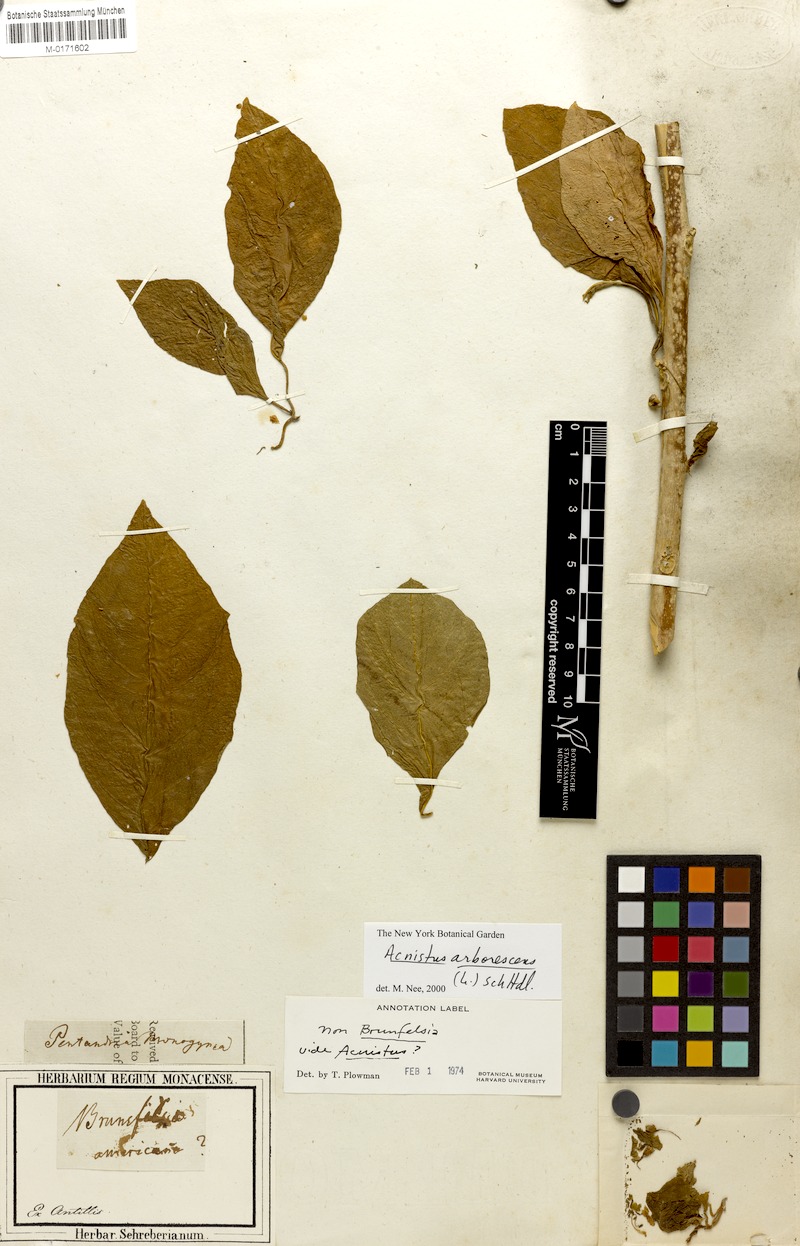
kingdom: Plantae
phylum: Tracheophyta
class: Magnoliopsida
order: Solanales
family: Solanaceae
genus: Iochroma
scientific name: Iochroma arborescens
